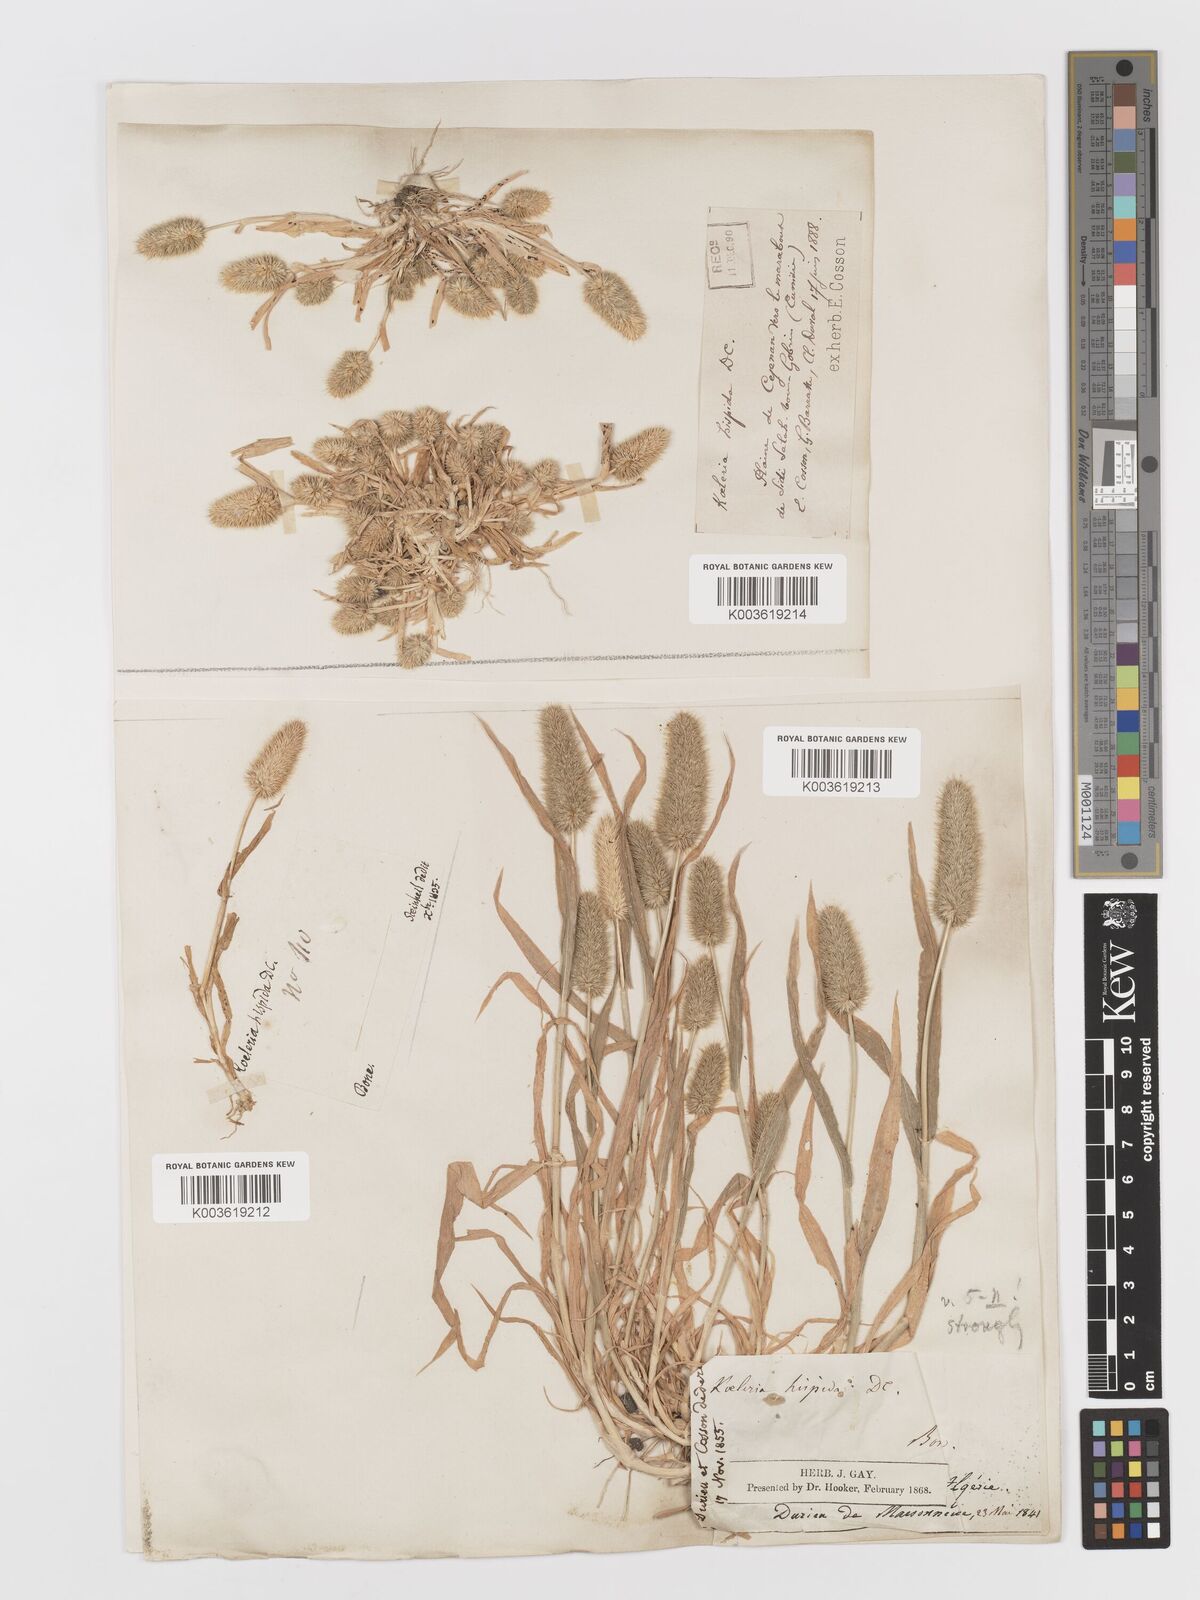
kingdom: Plantae
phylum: Tracheophyta
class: Liliopsida
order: Poales
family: Poaceae
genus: Rostraria
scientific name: Rostraria hispida
